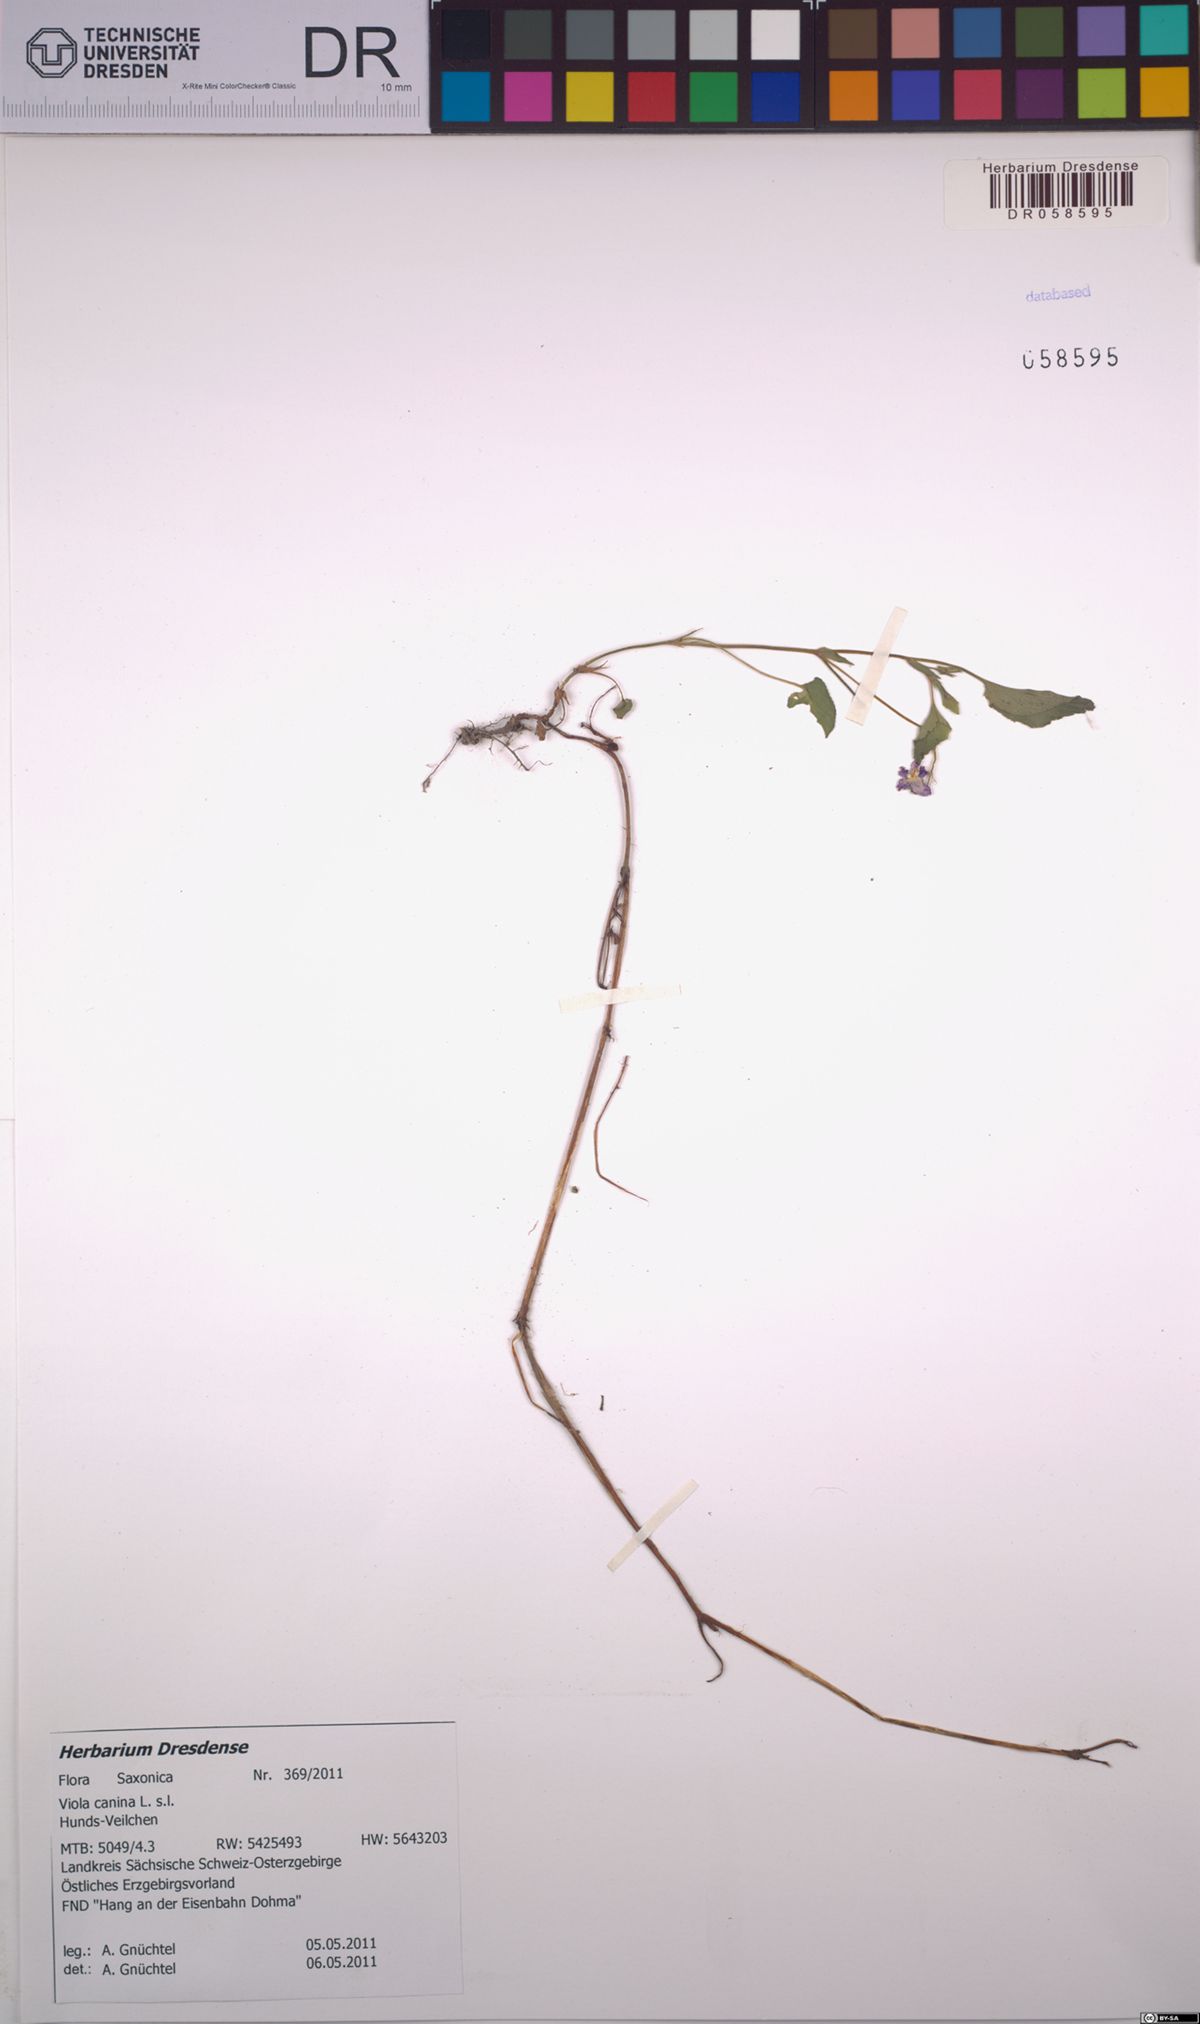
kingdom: Plantae
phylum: Tracheophyta
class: Magnoliopsida
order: Malpighiales
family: Violaceae
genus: Viola
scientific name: Viola canina
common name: Heath dog-violet
